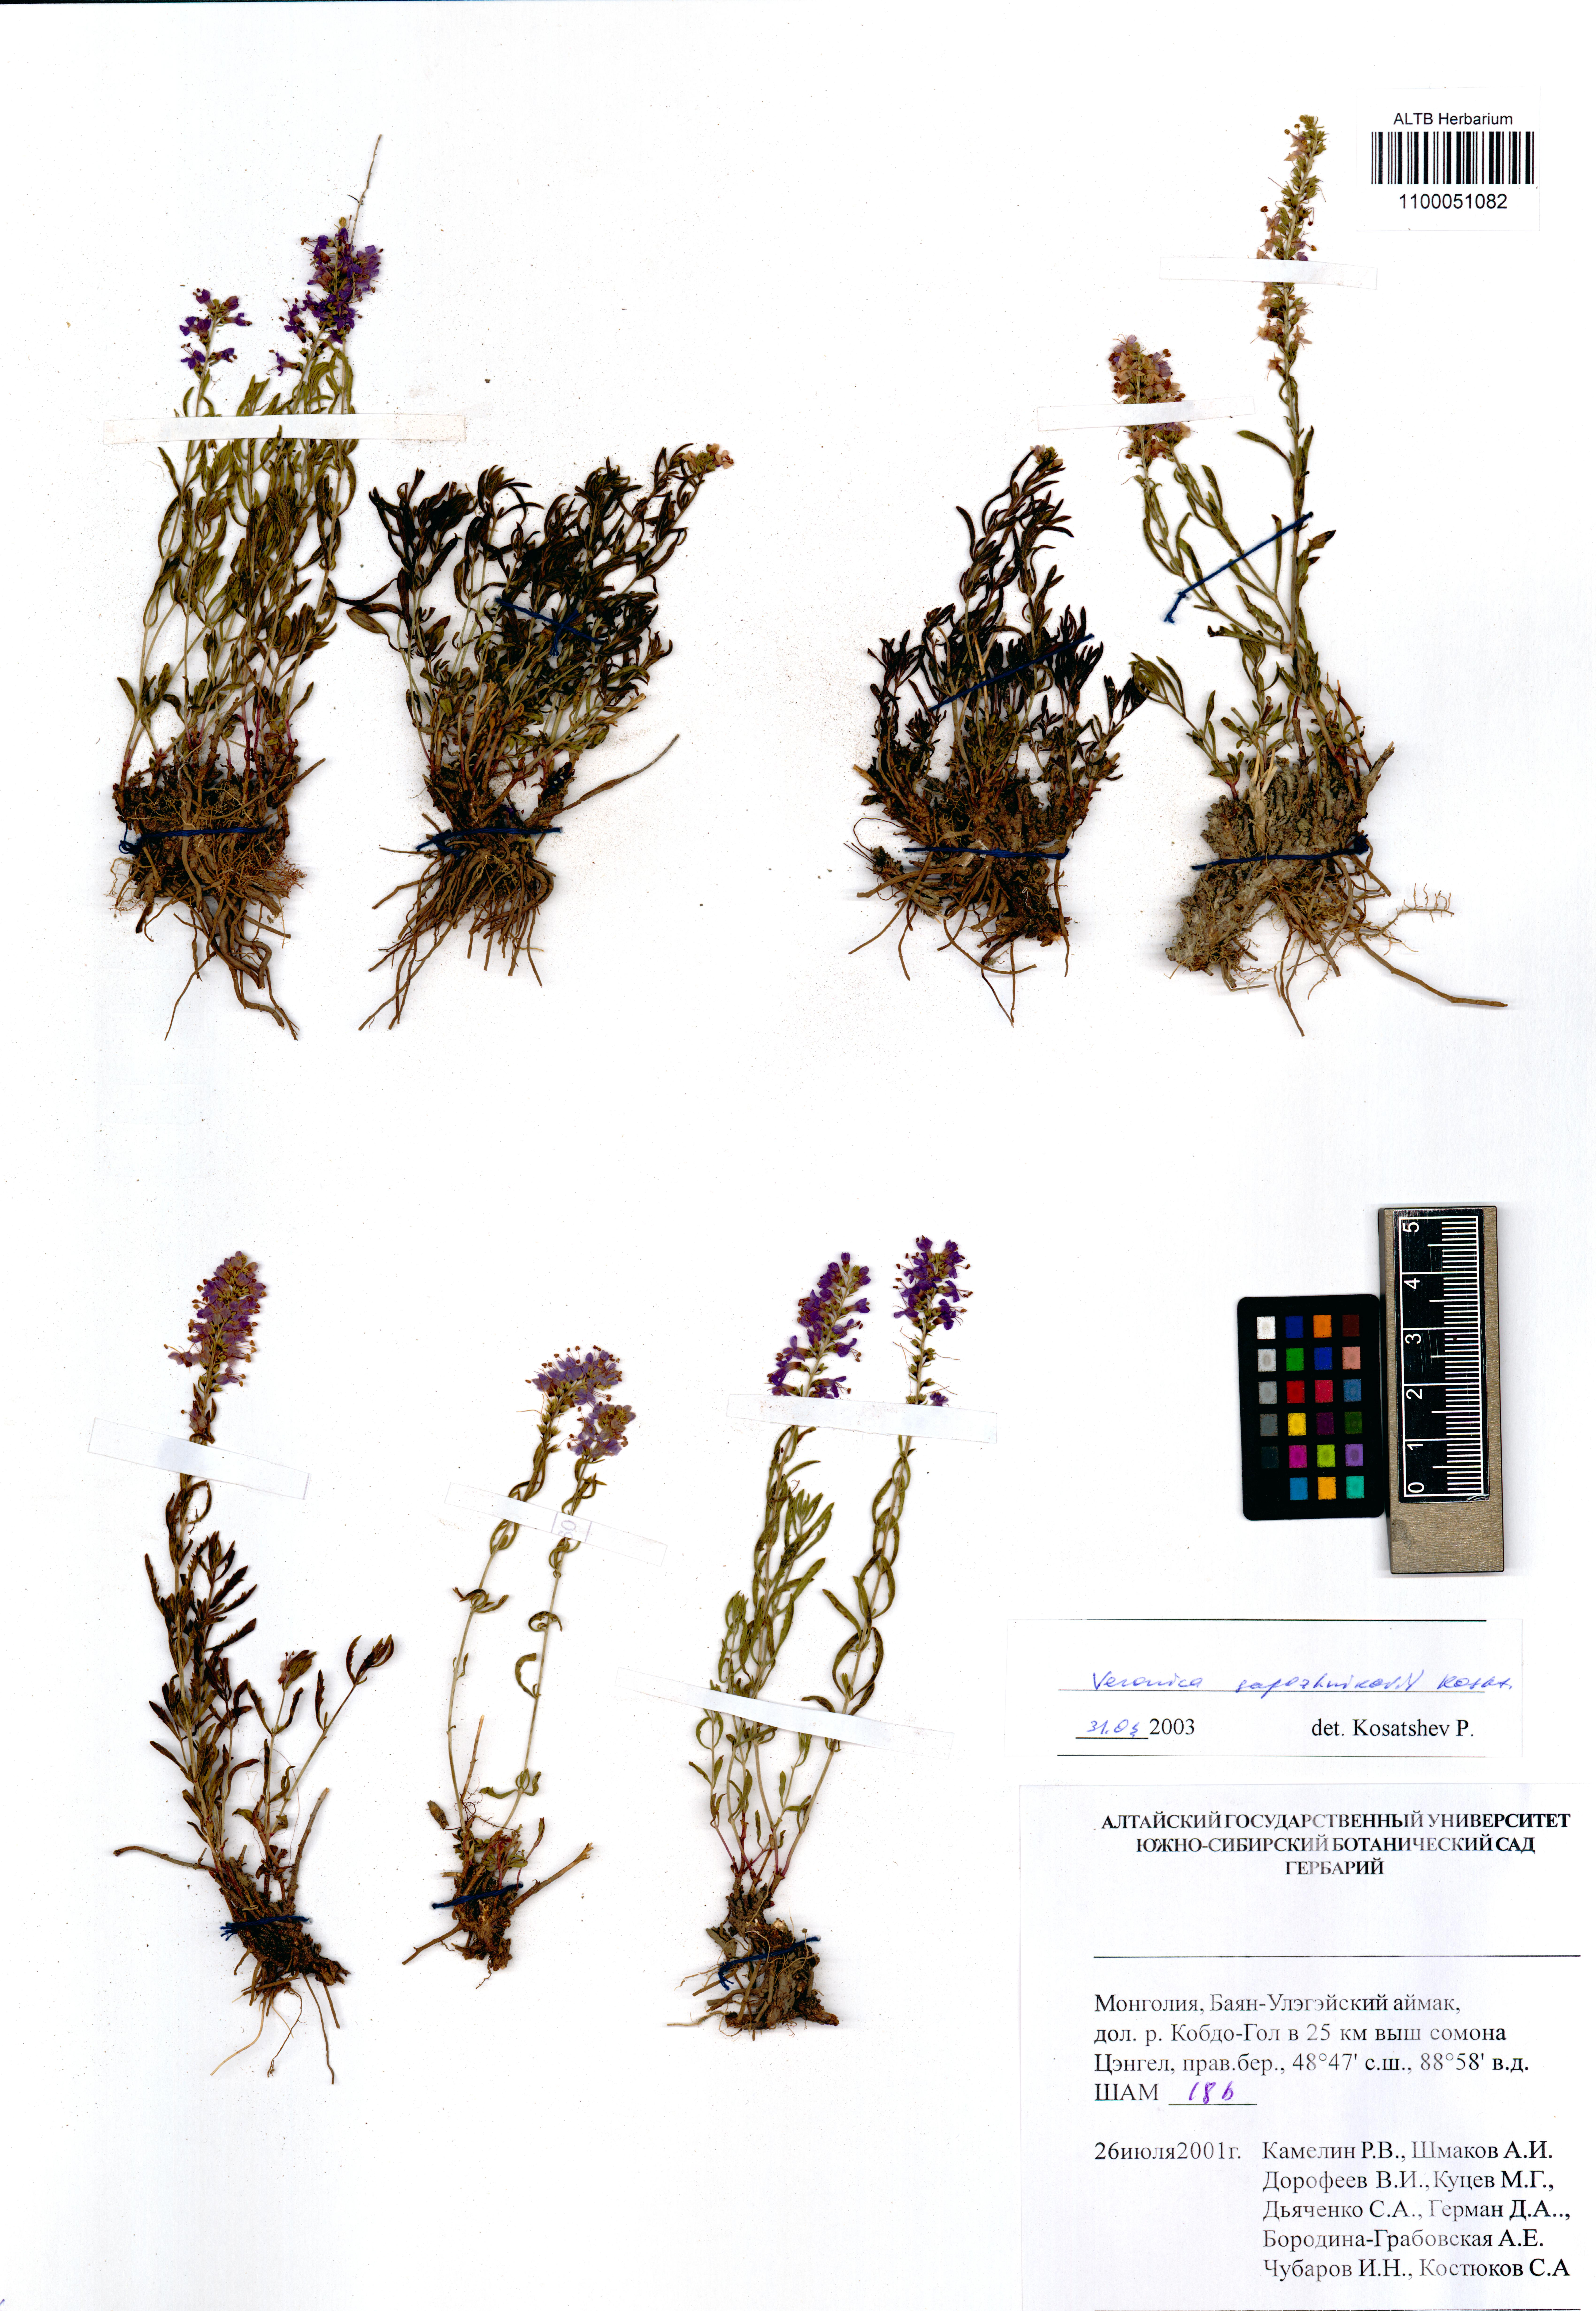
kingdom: Plantae
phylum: Tracheophyta
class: Magnoliopsida
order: Lamiales
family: Plantaginaceae
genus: Veronica
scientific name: Veronica sapozhnikovii
